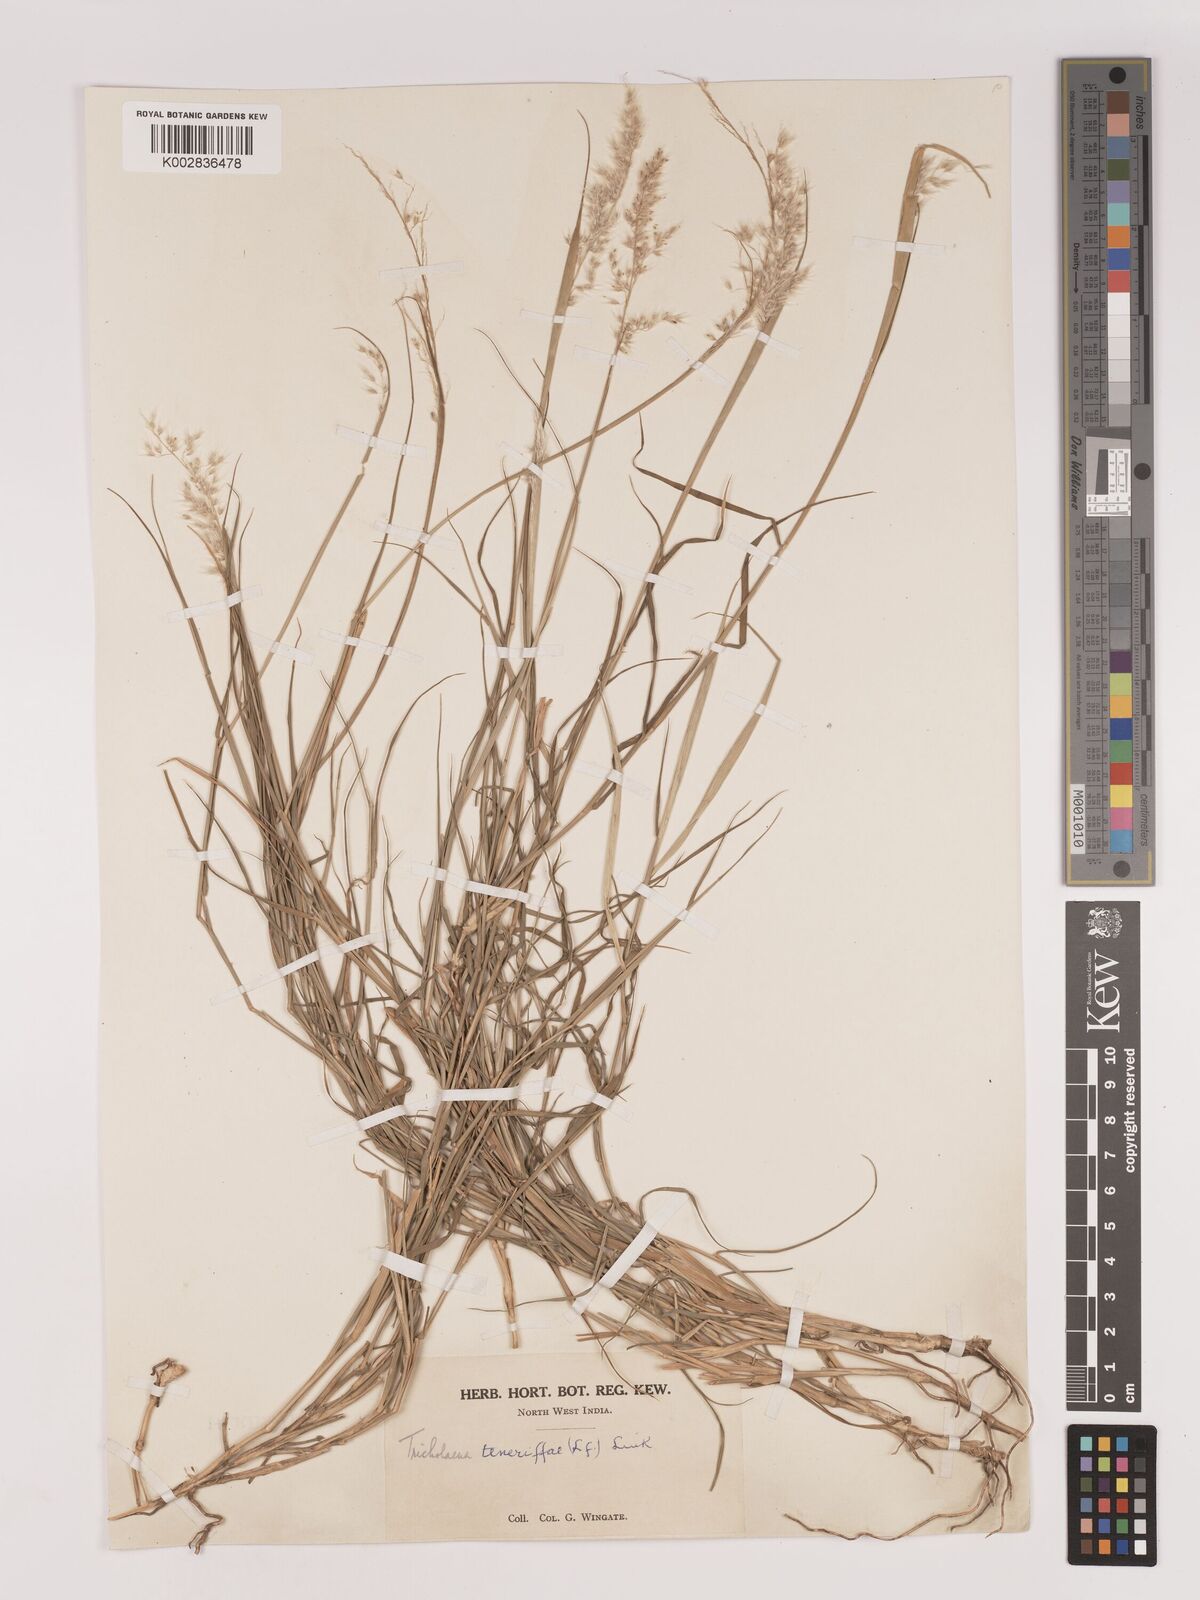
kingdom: Plantae
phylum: Tracheophyta
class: Liliopsida
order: Poales
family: Poaceae
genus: Tricholaena
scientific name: Tricholaena teneriffae
